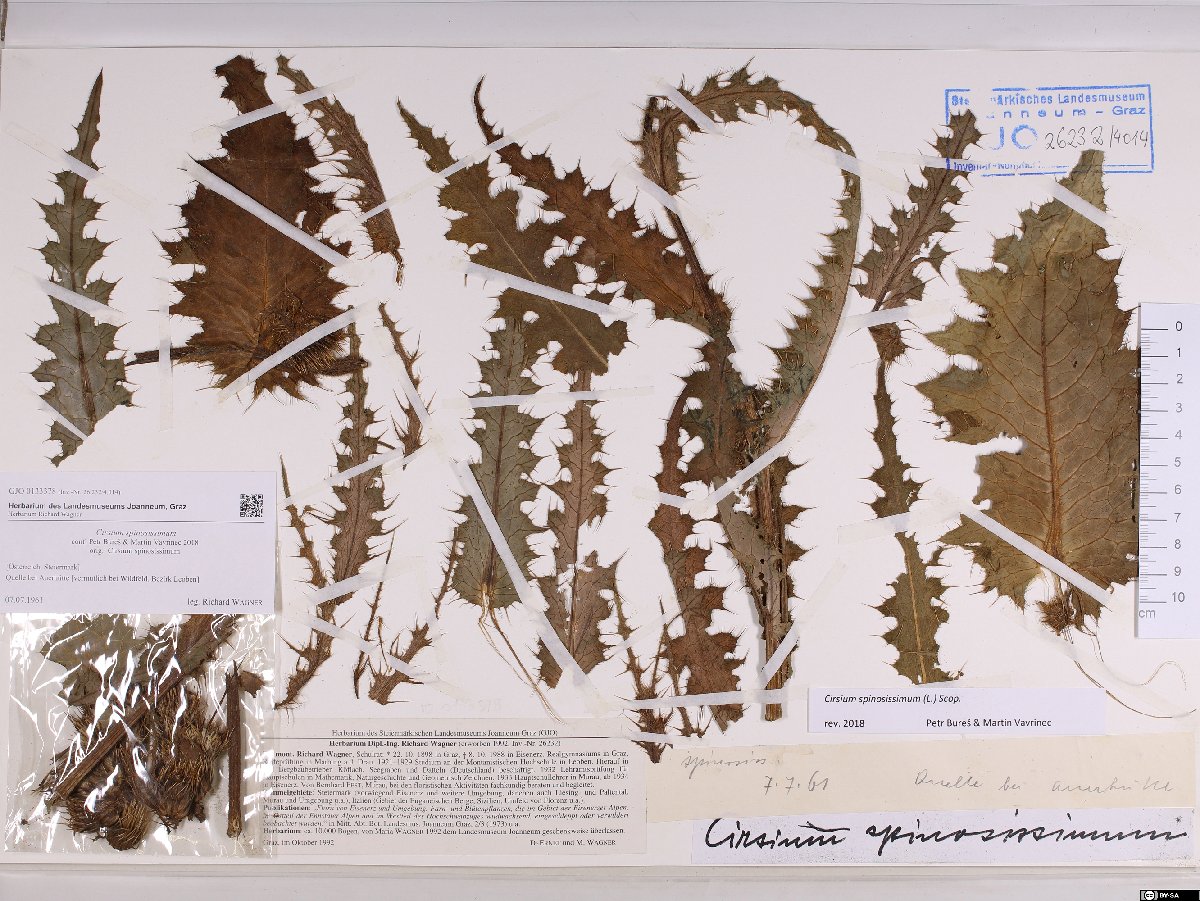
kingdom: Plantae
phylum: Tracheophyta
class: Magnoliopsida
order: Asterales
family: Asteraceae
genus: Cirsium
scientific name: Cirsium spinosissimum
